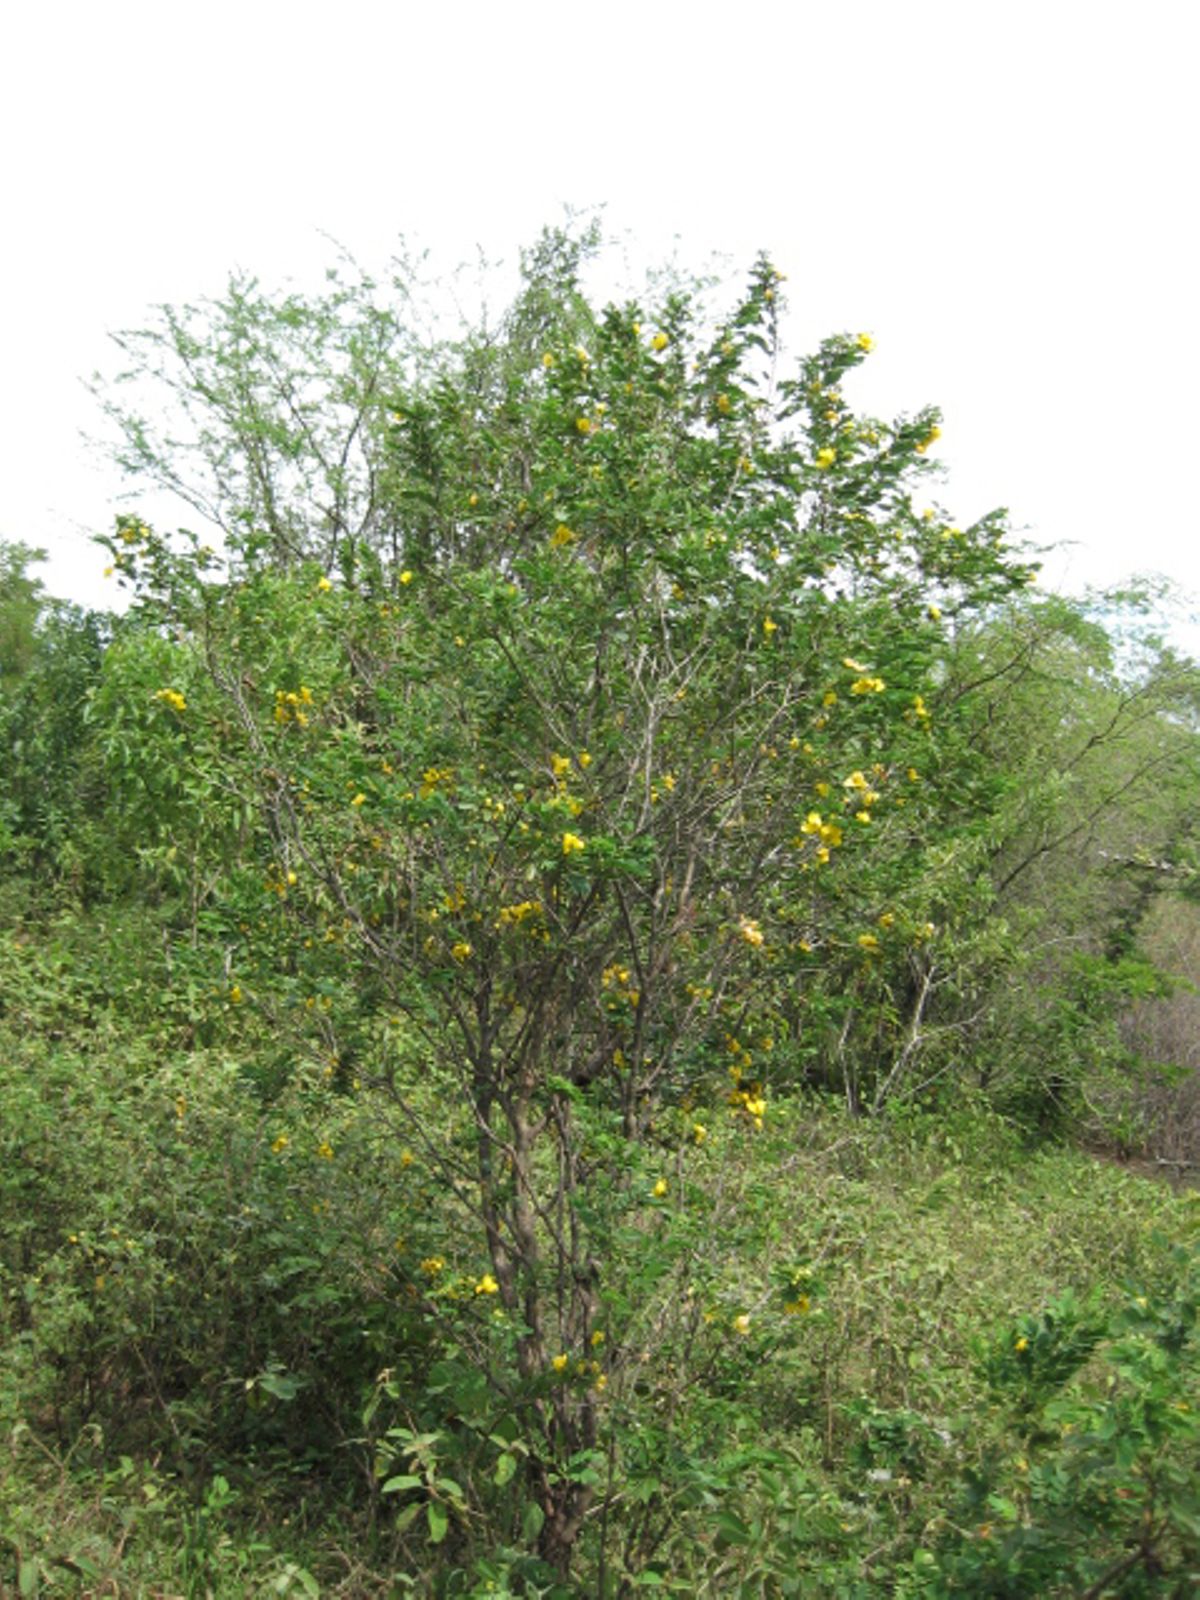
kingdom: Plantae
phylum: Tracheophyta
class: Magnoliopsida
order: Fabales
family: Fabaceae
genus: Senna
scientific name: Senna pallida
